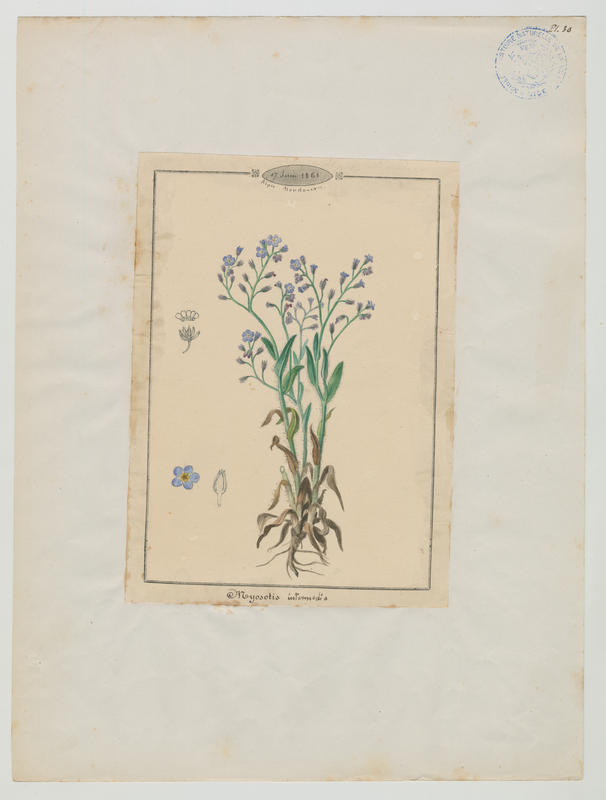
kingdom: Plantae
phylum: Tracheophyta
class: Magnoliopsida
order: Boraginales
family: Boraginaceae
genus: Myosotis
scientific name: Myosotis arvensis
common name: Field forget-me-not
